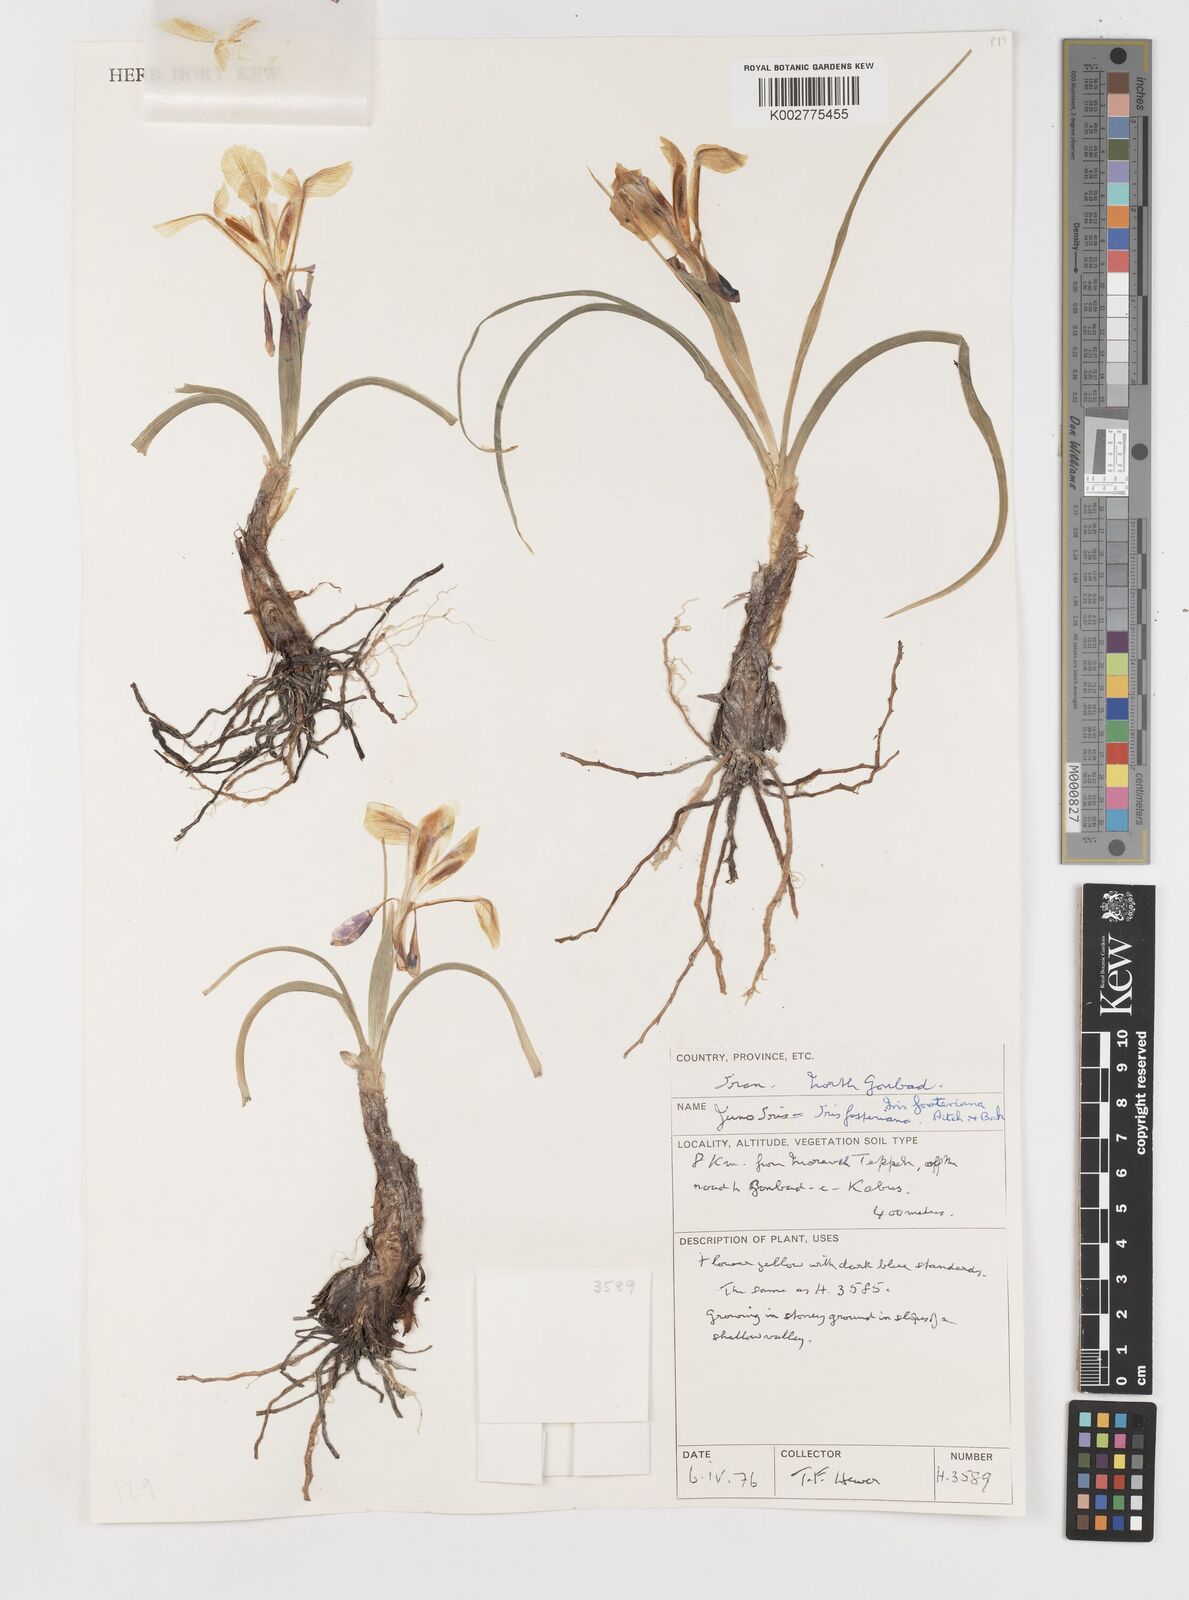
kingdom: Plantae
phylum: Tracheophyta
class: Liliopsida
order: Asparagales
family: Iridaceae
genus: Iris
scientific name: Iris fosteriana
